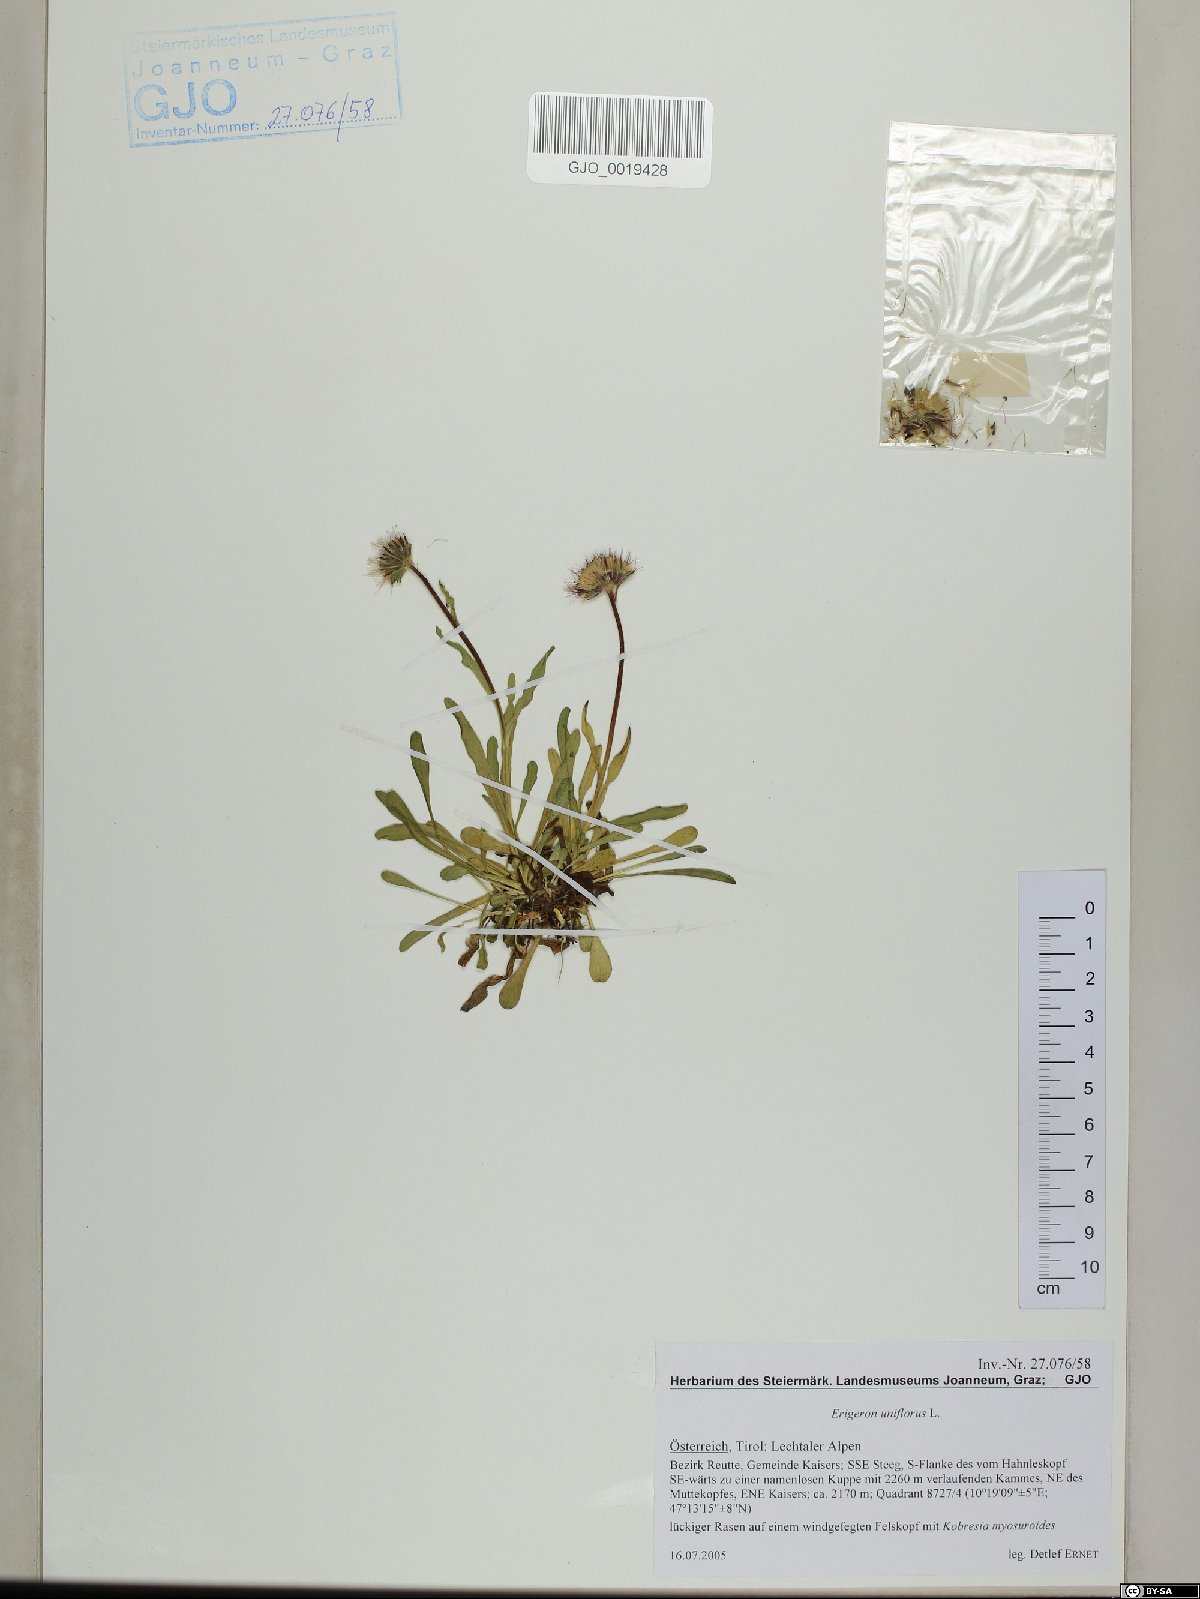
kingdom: Plantae
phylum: Tracheophyta
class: Magnoliopsida
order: Asterales
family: Asteraceae
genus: Erigeron
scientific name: Erigeron uniflorus
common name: Northern daisy
